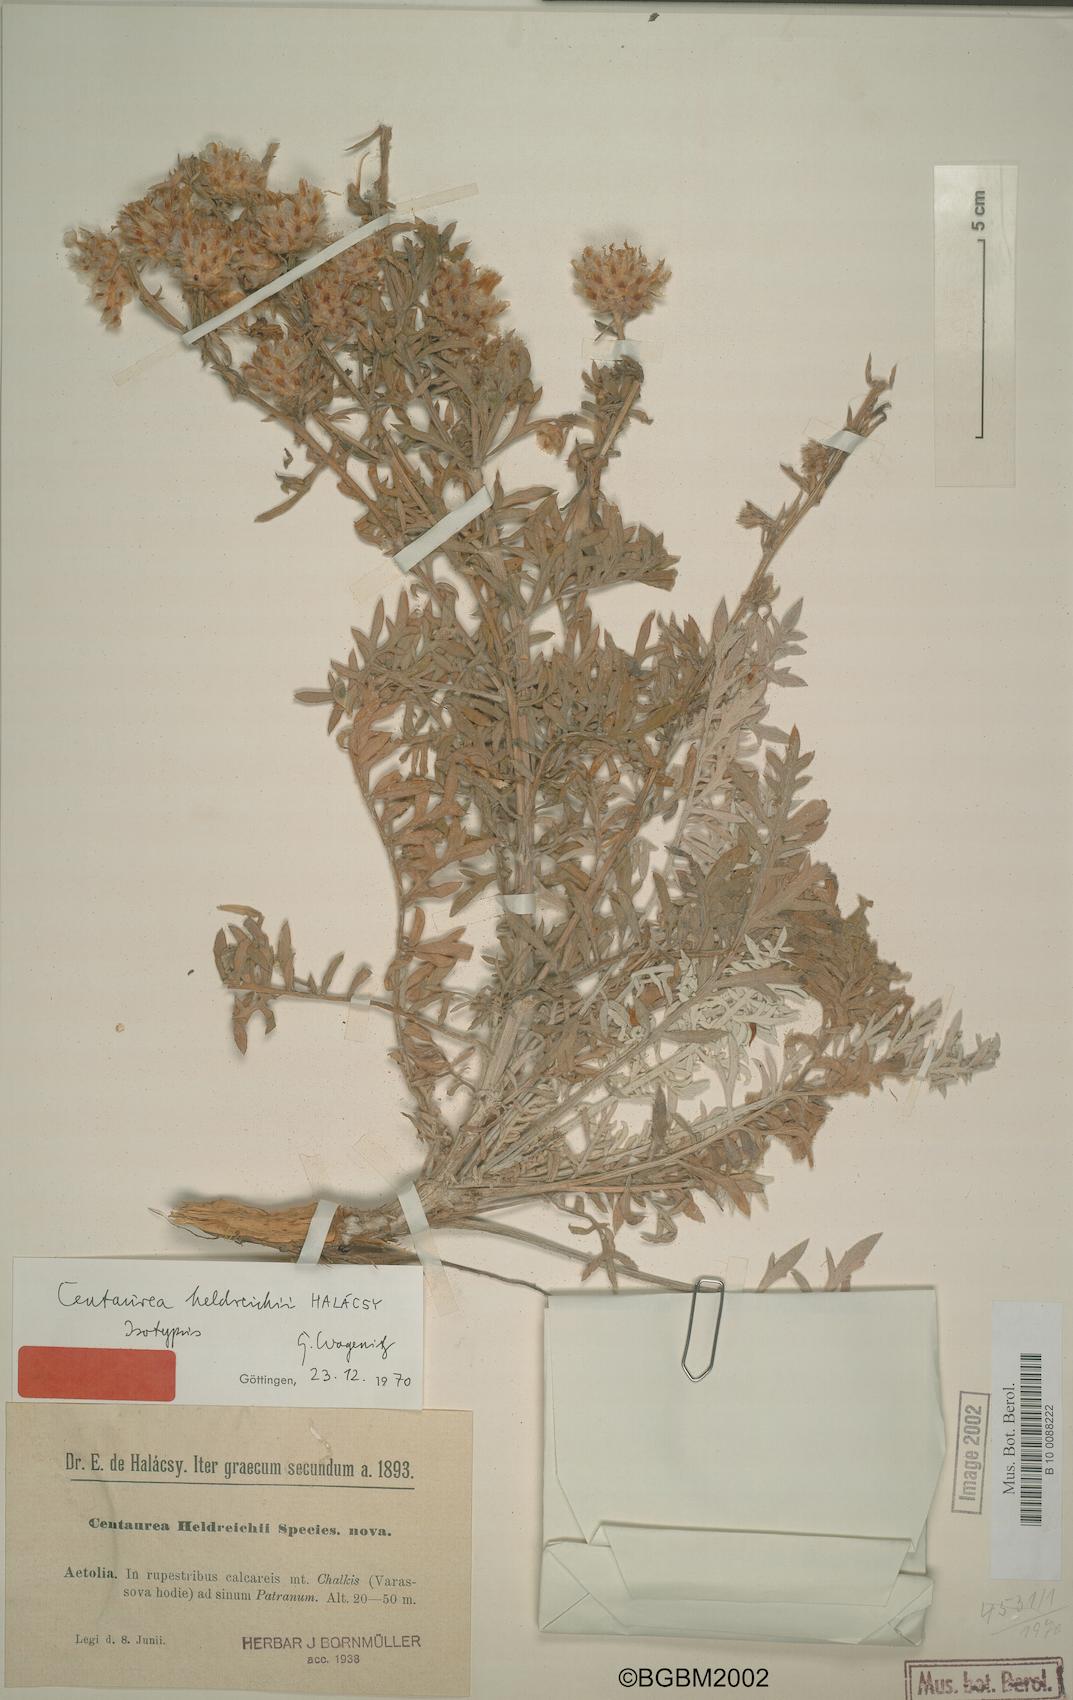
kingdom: Plantae
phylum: Tracheophyta
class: Magnoliopsida
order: Asterales
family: Asteraceae
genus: Centaurea
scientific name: Centaurea heldreichii
